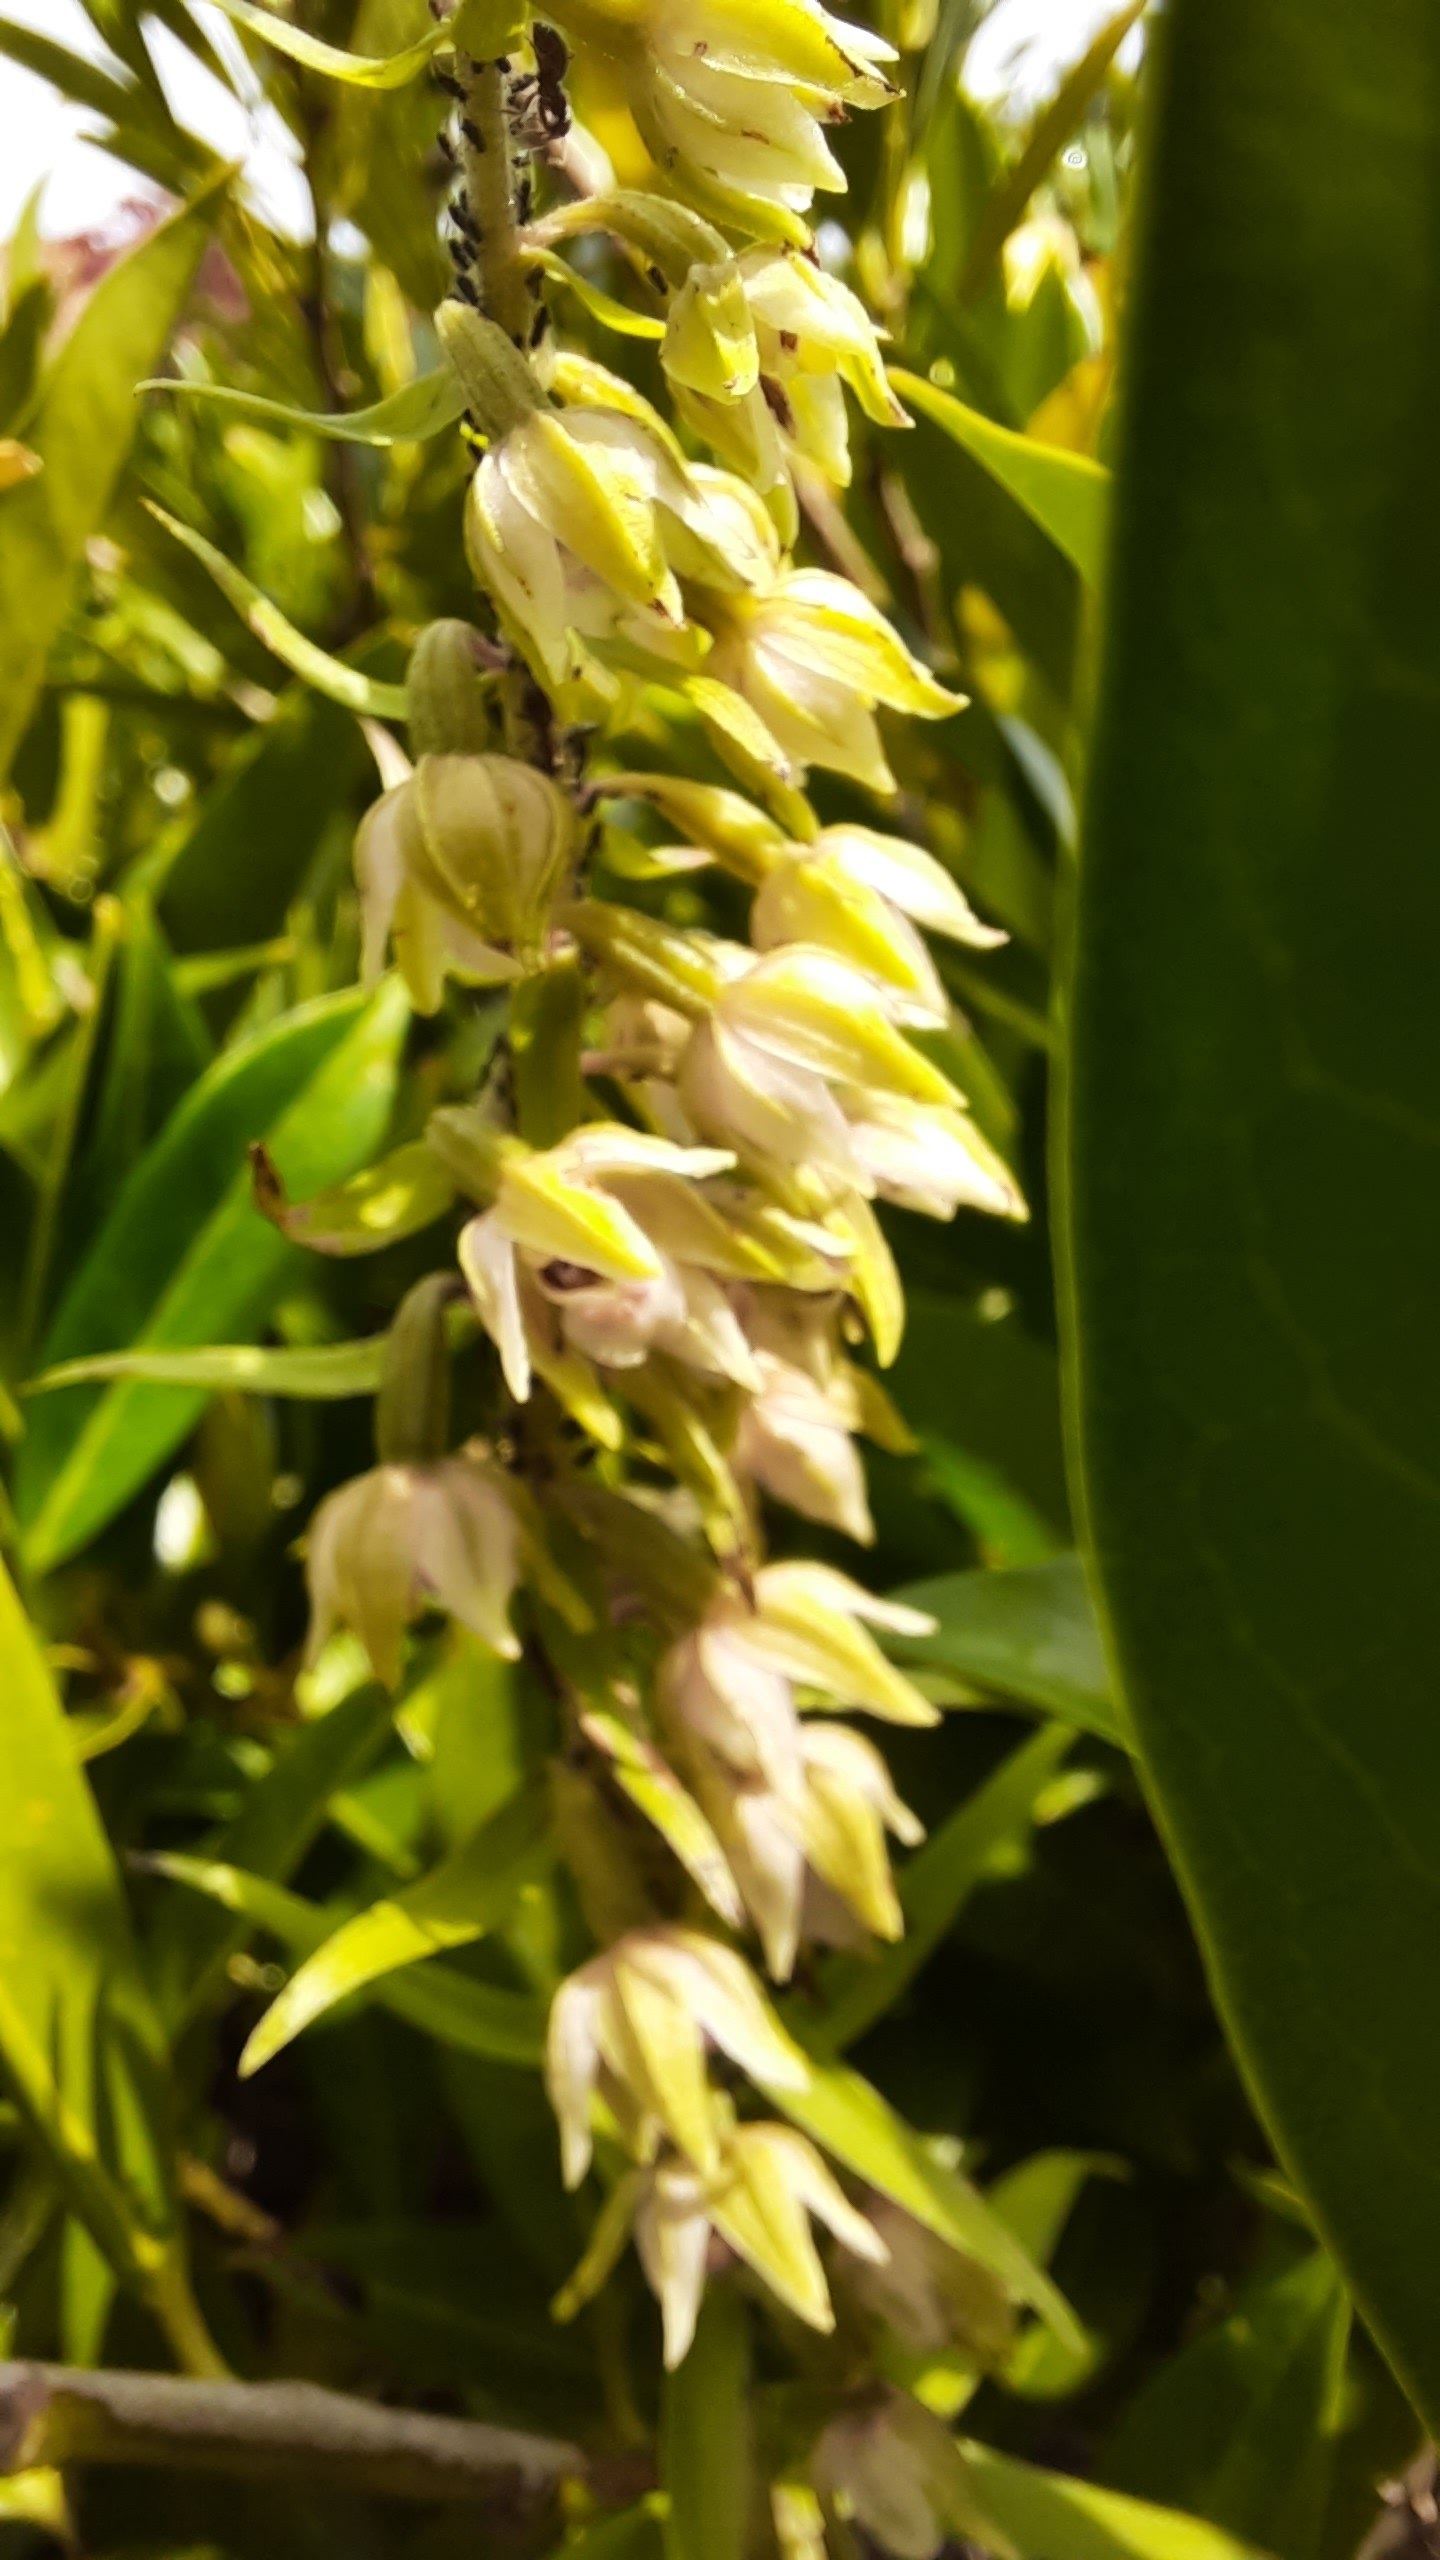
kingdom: Plantae
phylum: Tracheophyta
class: Liliopsida
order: Asparagales
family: Orchidaceae
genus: Epipactis
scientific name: Epipactis helleborine
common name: Skov-hullæbe
